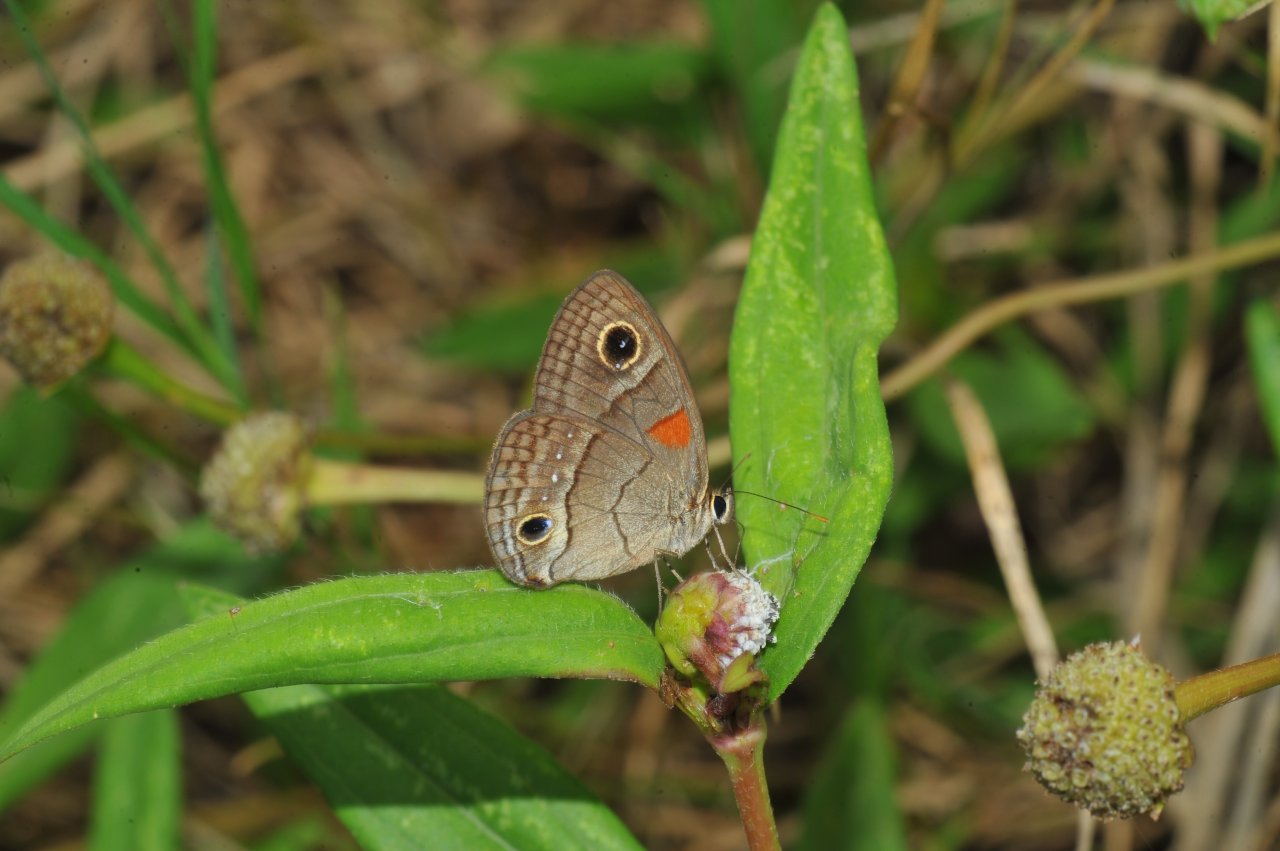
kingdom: Animalia
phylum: Arthropoda
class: Insecta
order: Lepidoptera
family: Nymphalidae
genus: Calisto
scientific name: Calisto herophile
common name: Cuban Calisto
